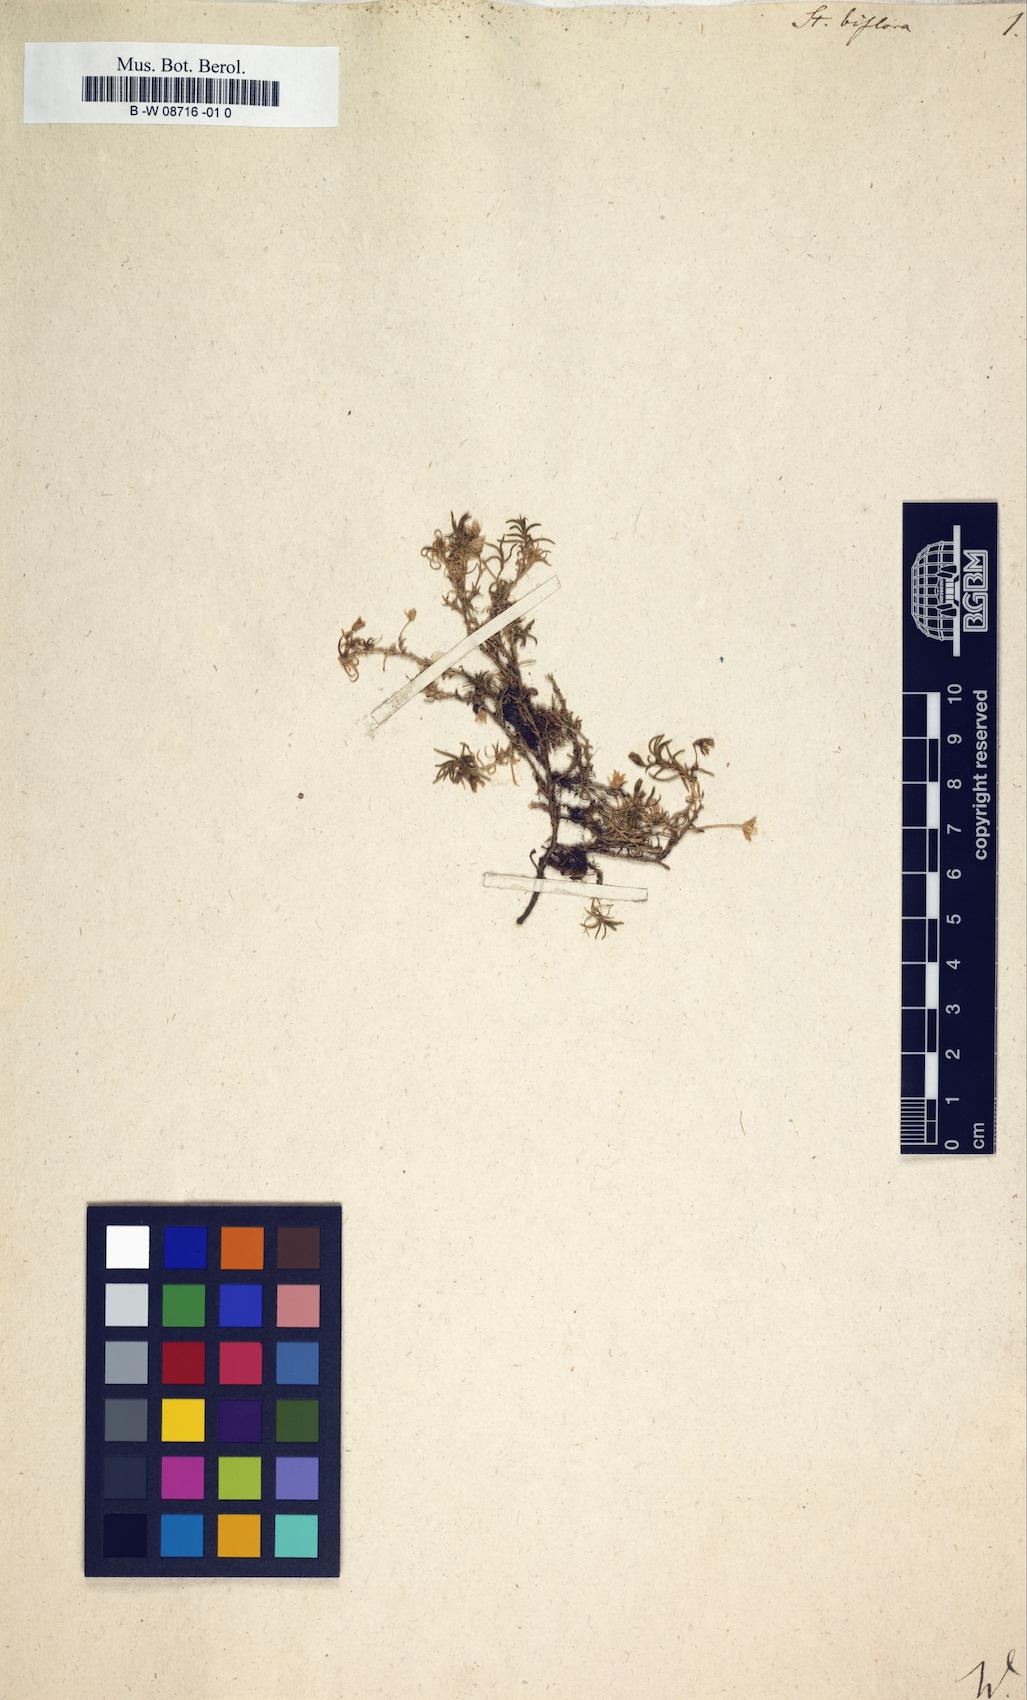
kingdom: Plantae
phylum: Tracheophyta
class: Magnoliopsida
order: Caryophyllales
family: Caryophyllaceae
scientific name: Caryophyllaceae
